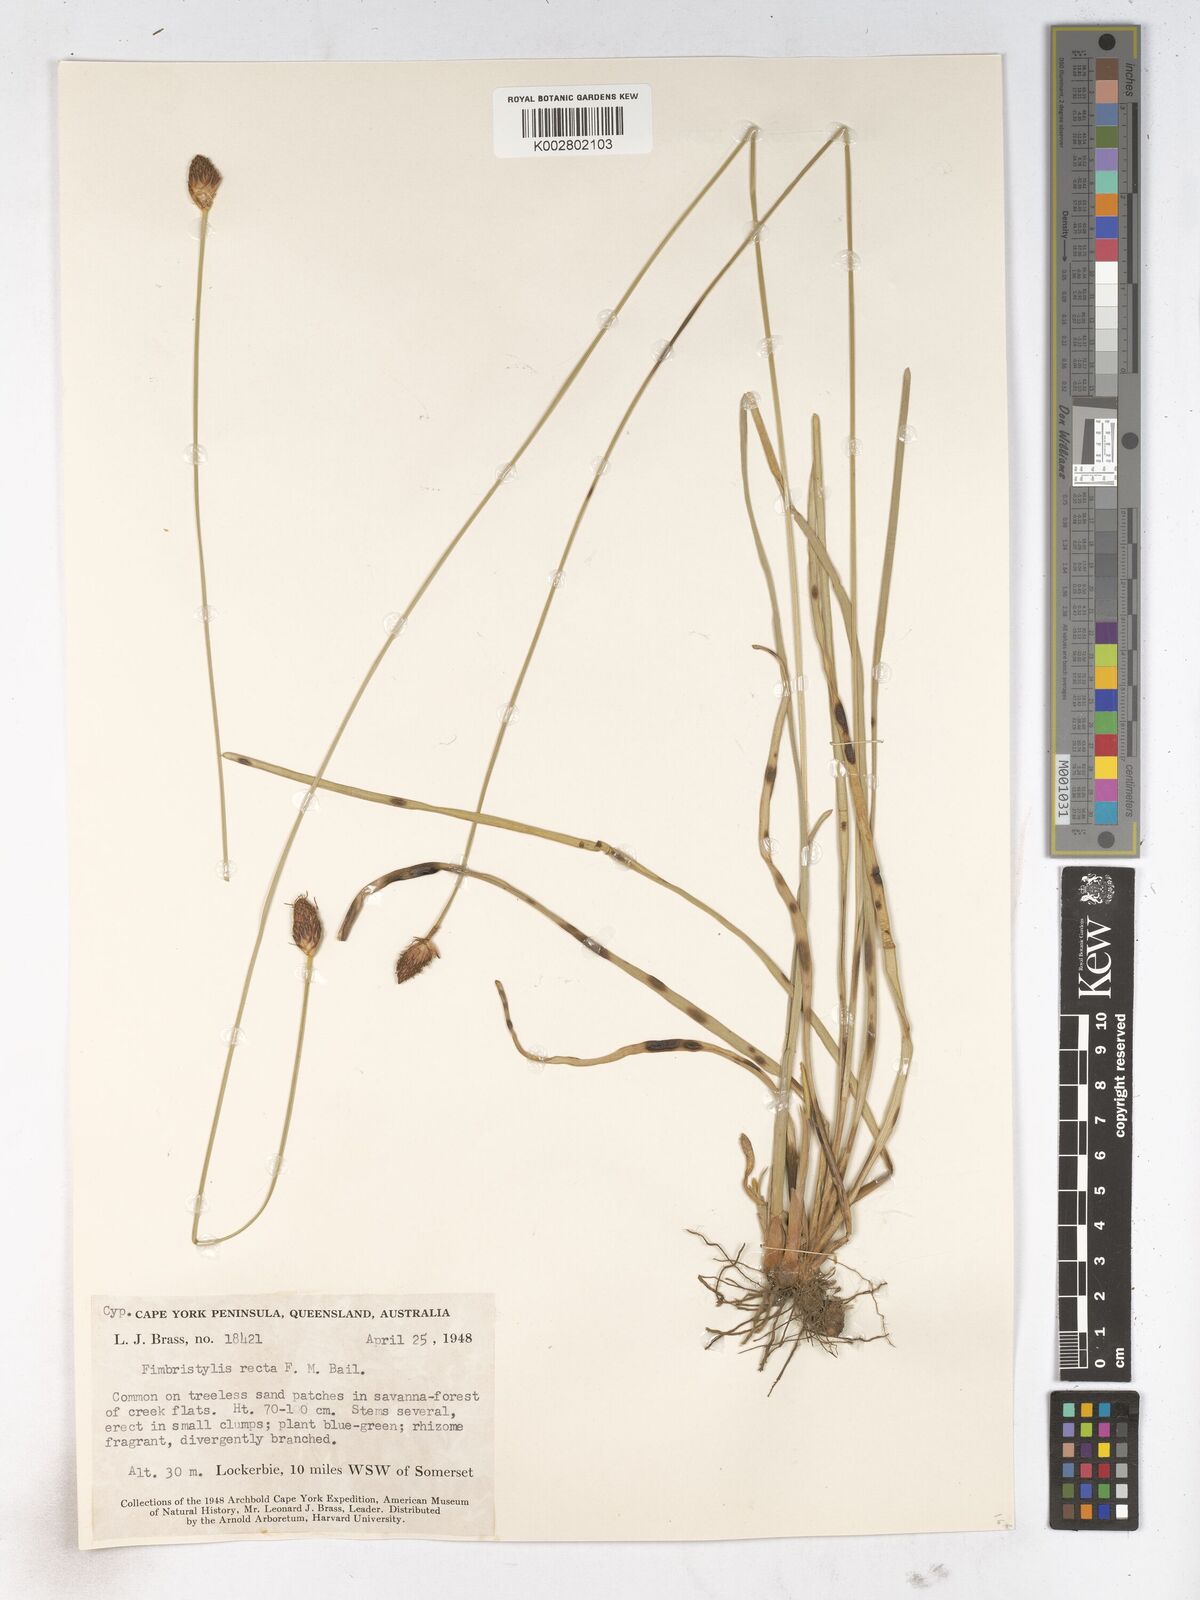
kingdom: Plantae
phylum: Tracheophyta
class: Liliopsida
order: Poales
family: Cyperaceae
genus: Fimbristylis
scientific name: Fimbristylis recta
